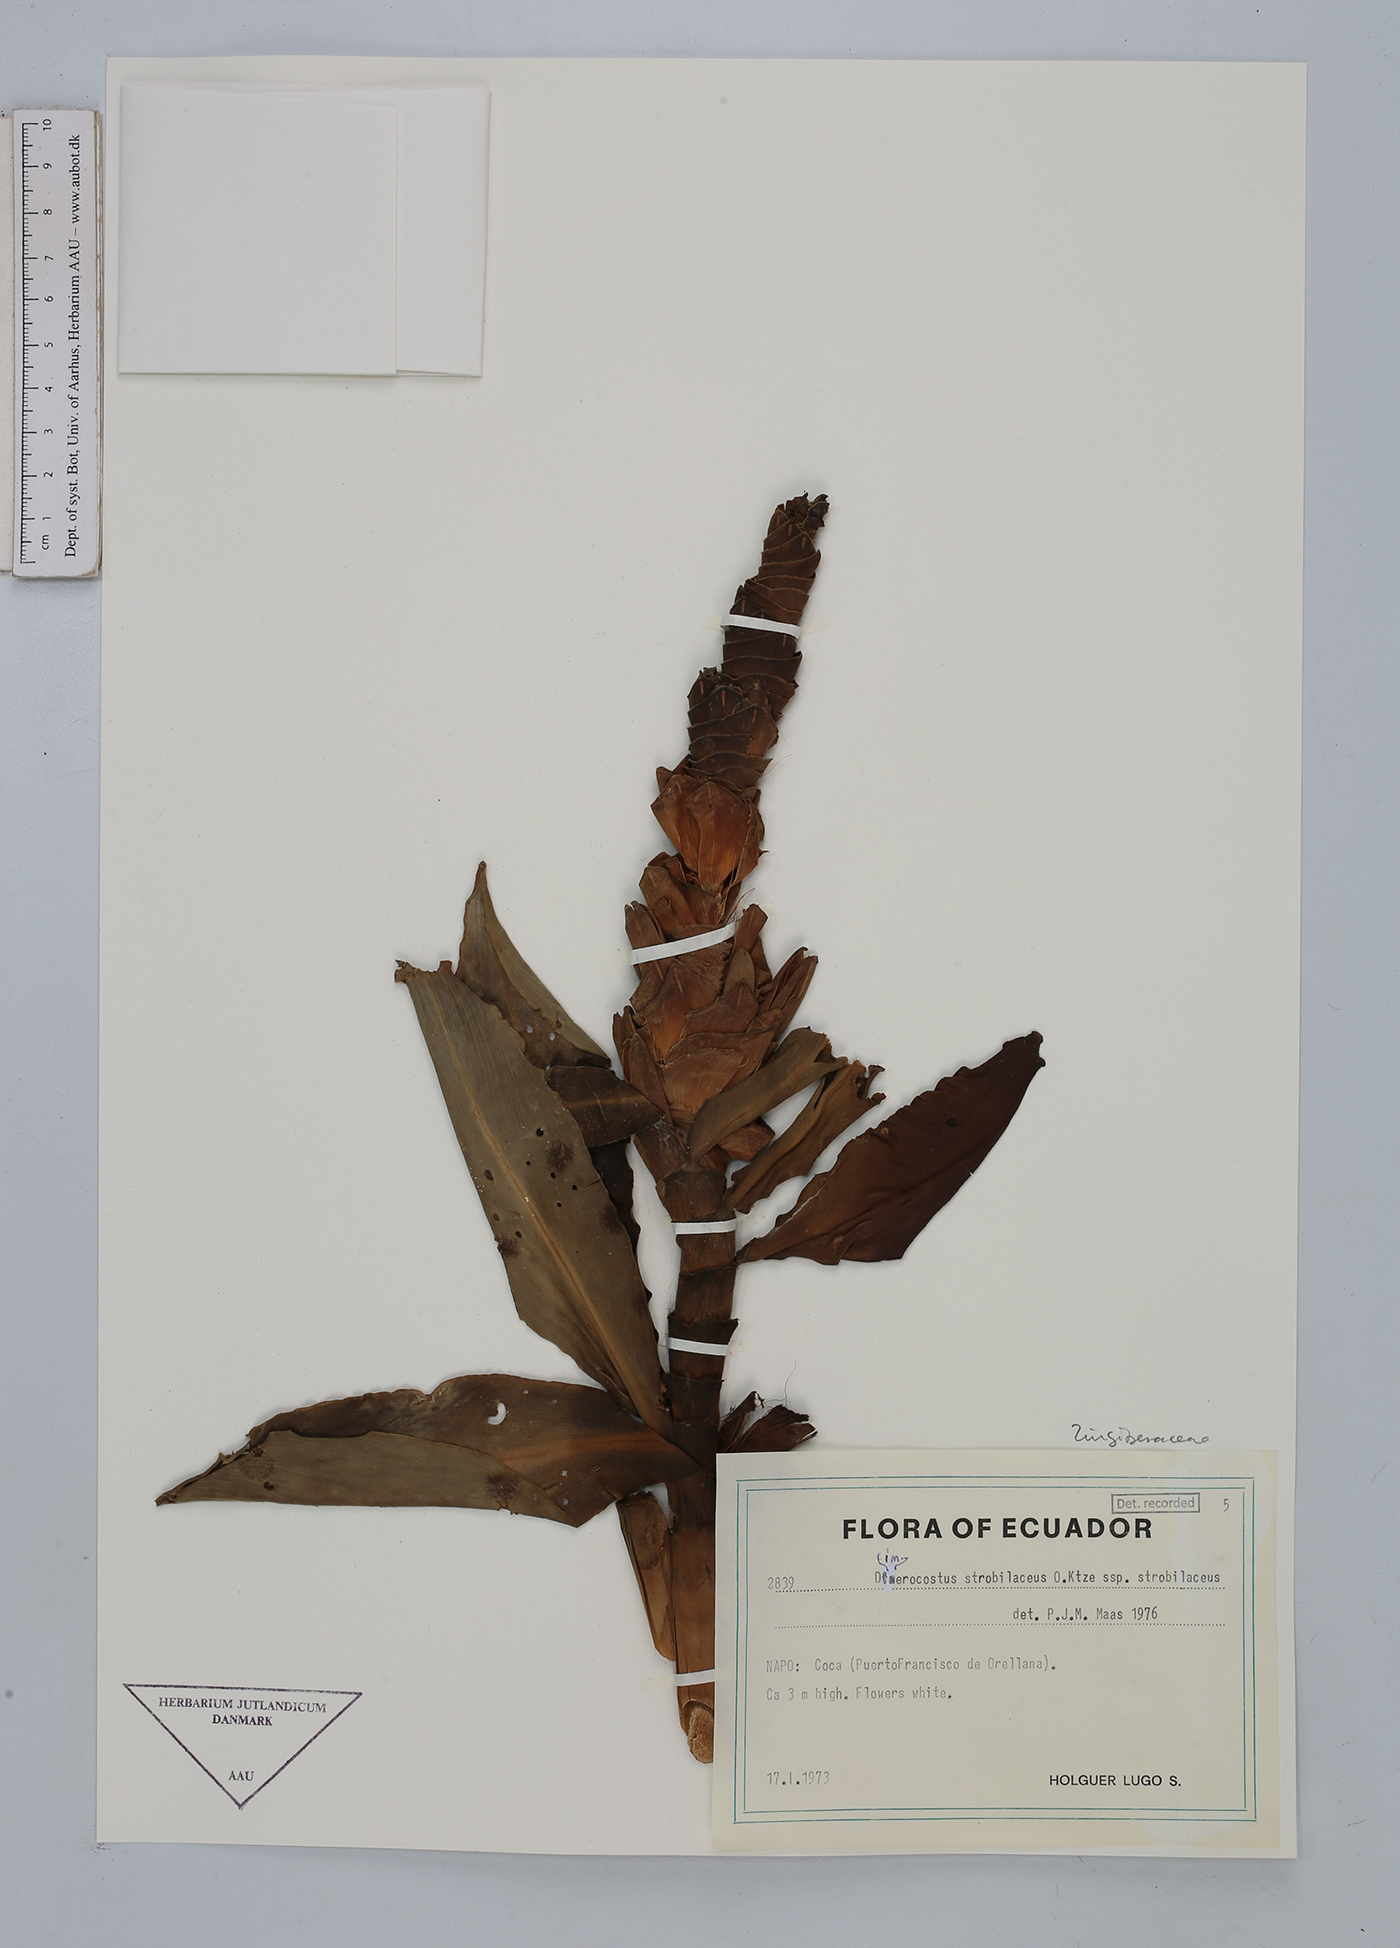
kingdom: Plantae
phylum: Tracheophyta
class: Liliopsida
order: Zingiberales
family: Costaceae
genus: Dimerocostus
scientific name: Dimerocostus strobilaceus
